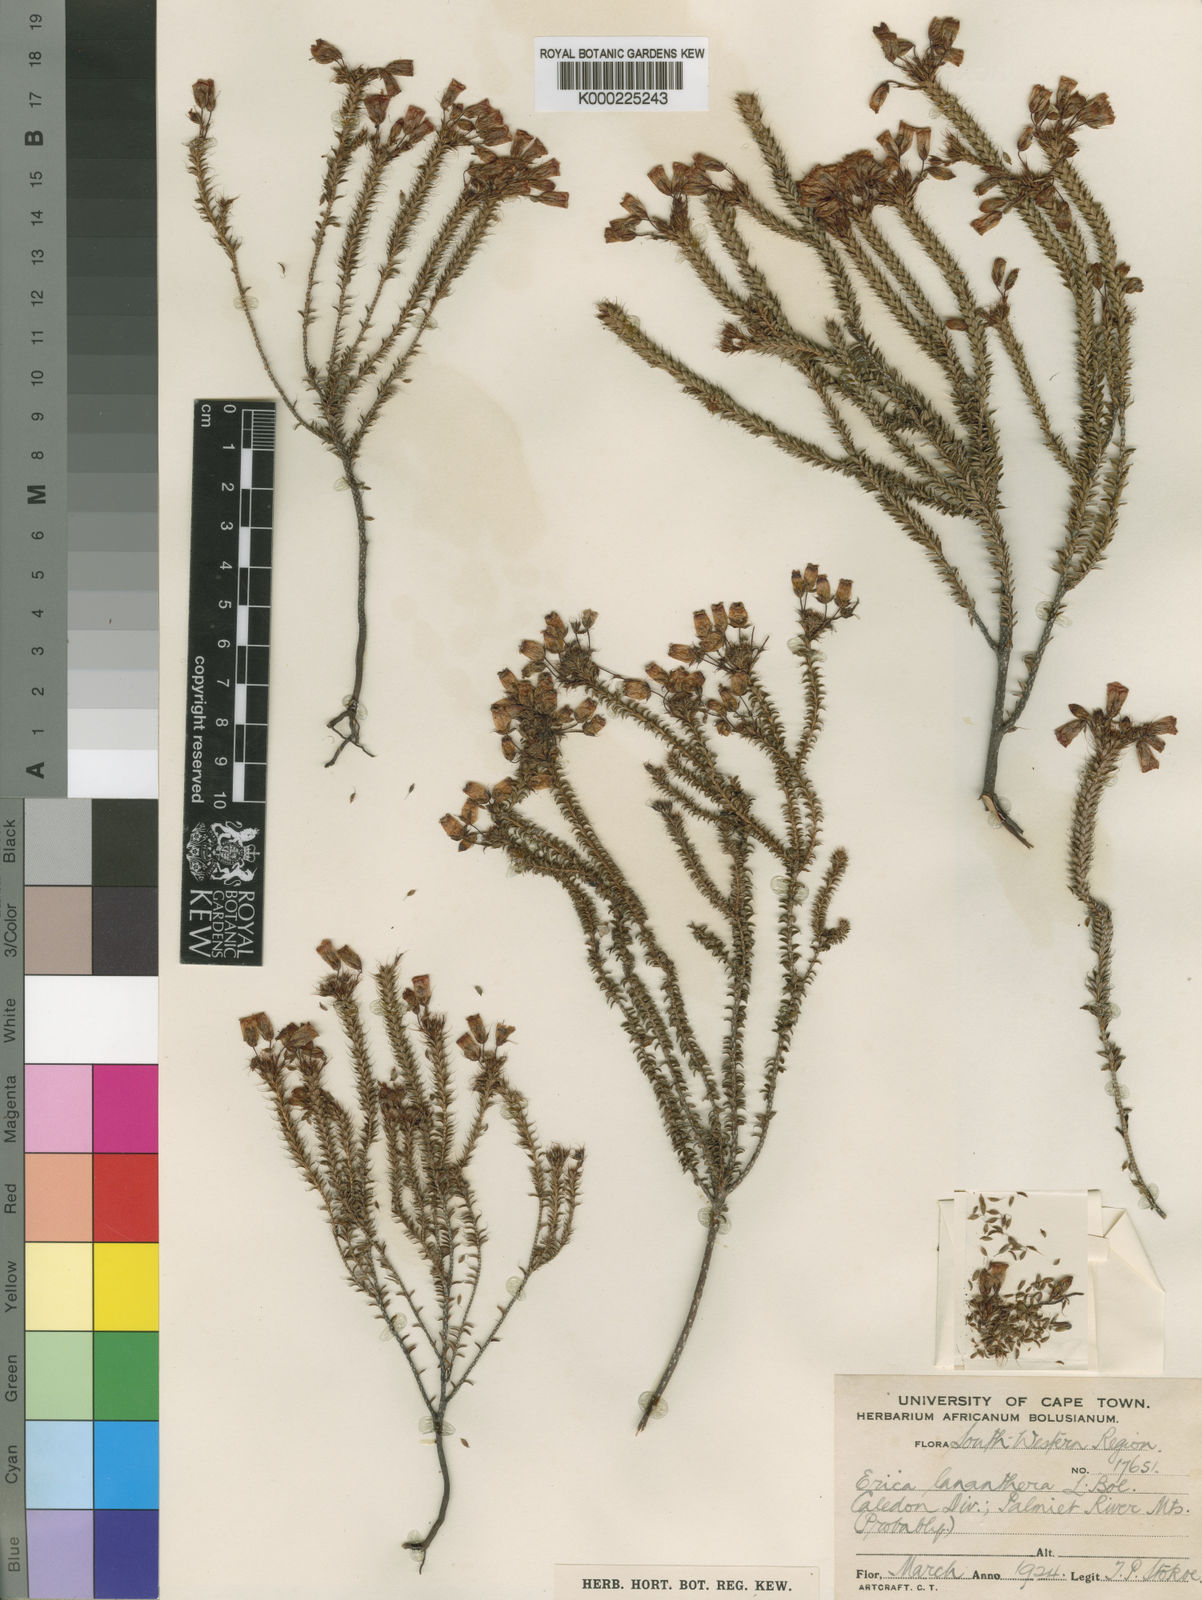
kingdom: Plantae
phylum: Tracheophyta
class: Magnoliopsida
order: Ericales
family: Ericaceae
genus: Erica
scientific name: Erica lananthera
